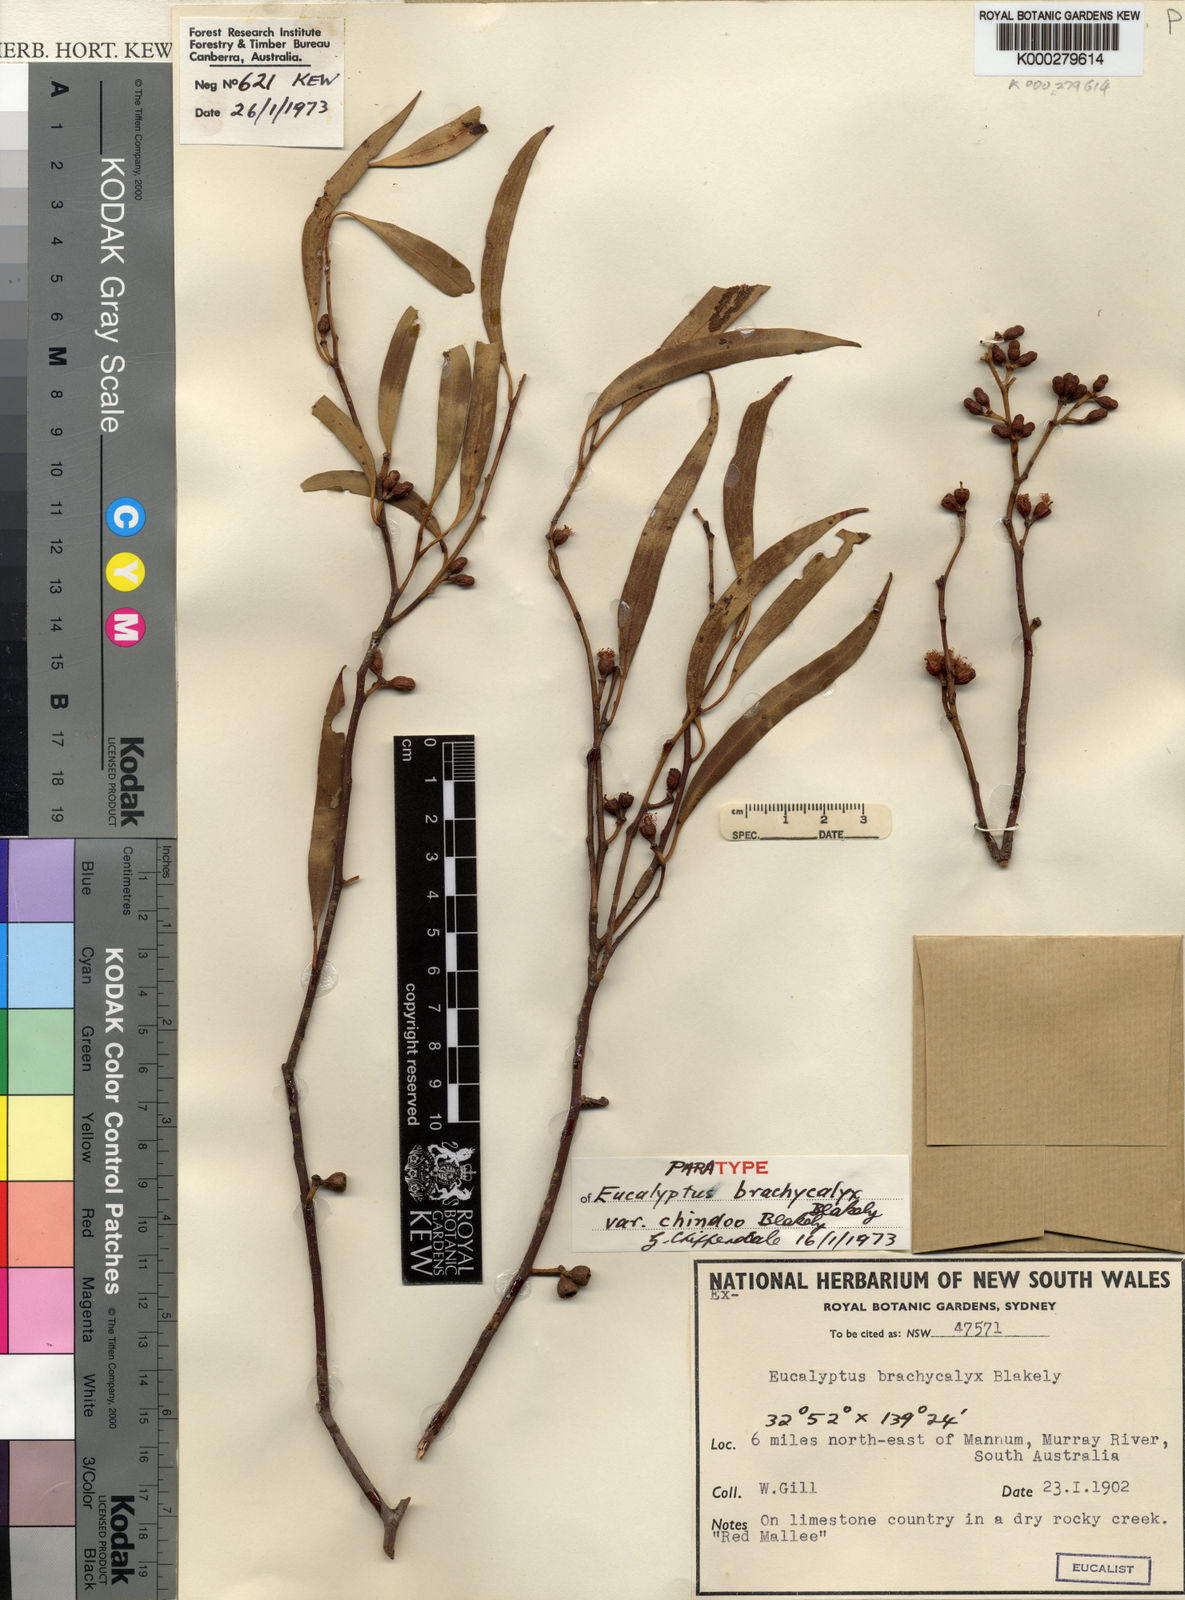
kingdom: Plantae
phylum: Tracheophyta
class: Magnoliopsida
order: Myrtales
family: Myrtaceae
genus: Eucalyptus
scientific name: Eucalyptus brachycalyx
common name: Chindoo mallee
